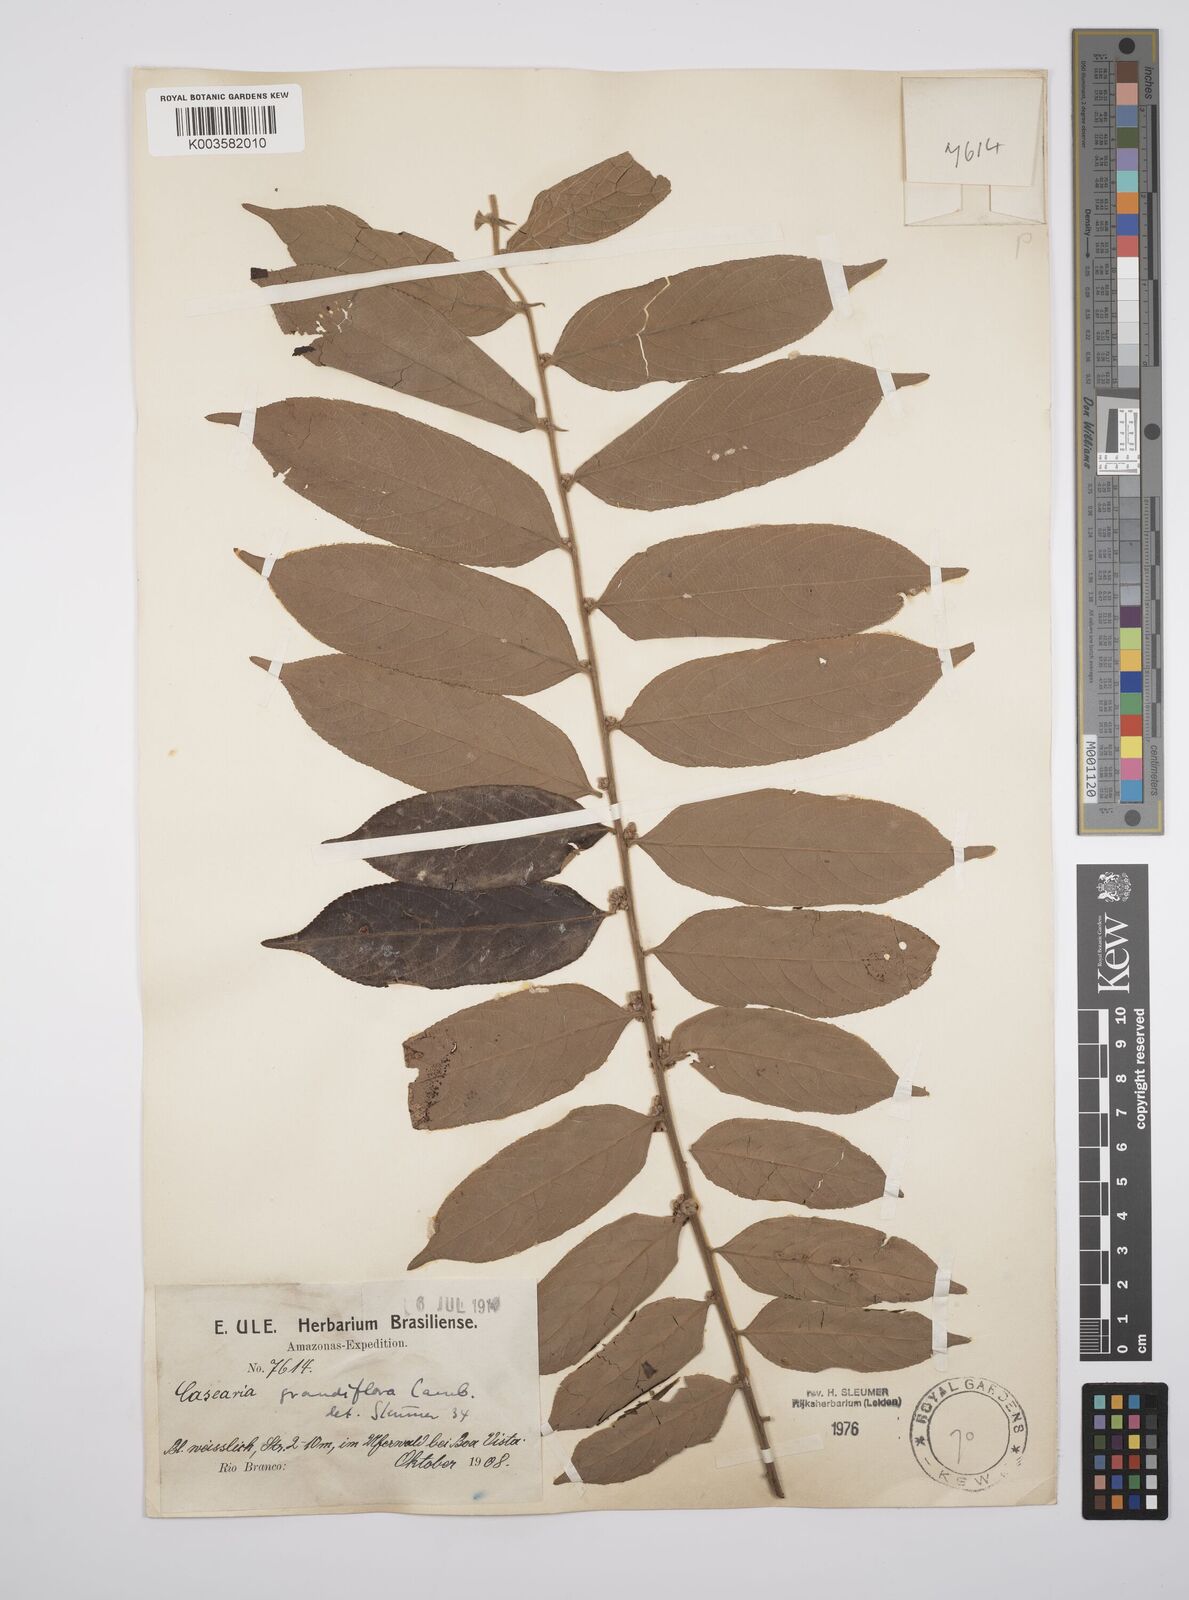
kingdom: Plantae
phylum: Tracheophyta
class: Magnoliopsida
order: Malpighiales
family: Salicaceae
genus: Casearia
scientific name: Casearia grandiflora
